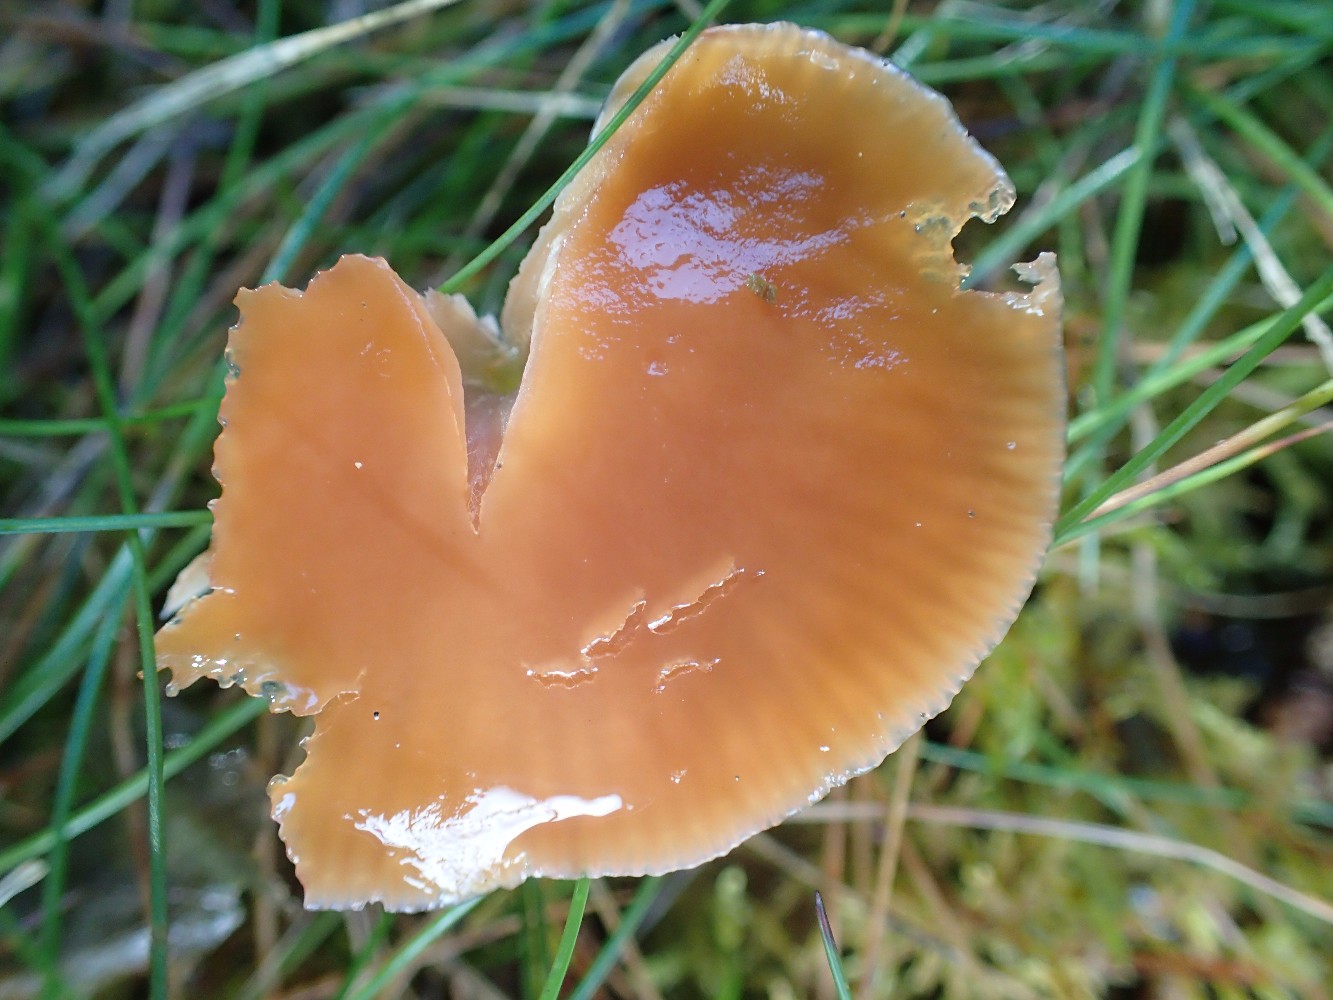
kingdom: Fungi
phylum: Basidiomycota
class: Agaricomycetes
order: Agaricales
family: Hygrophoraceae
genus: Gliophorus
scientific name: Gliophorus laetus
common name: brusk-vokshat
